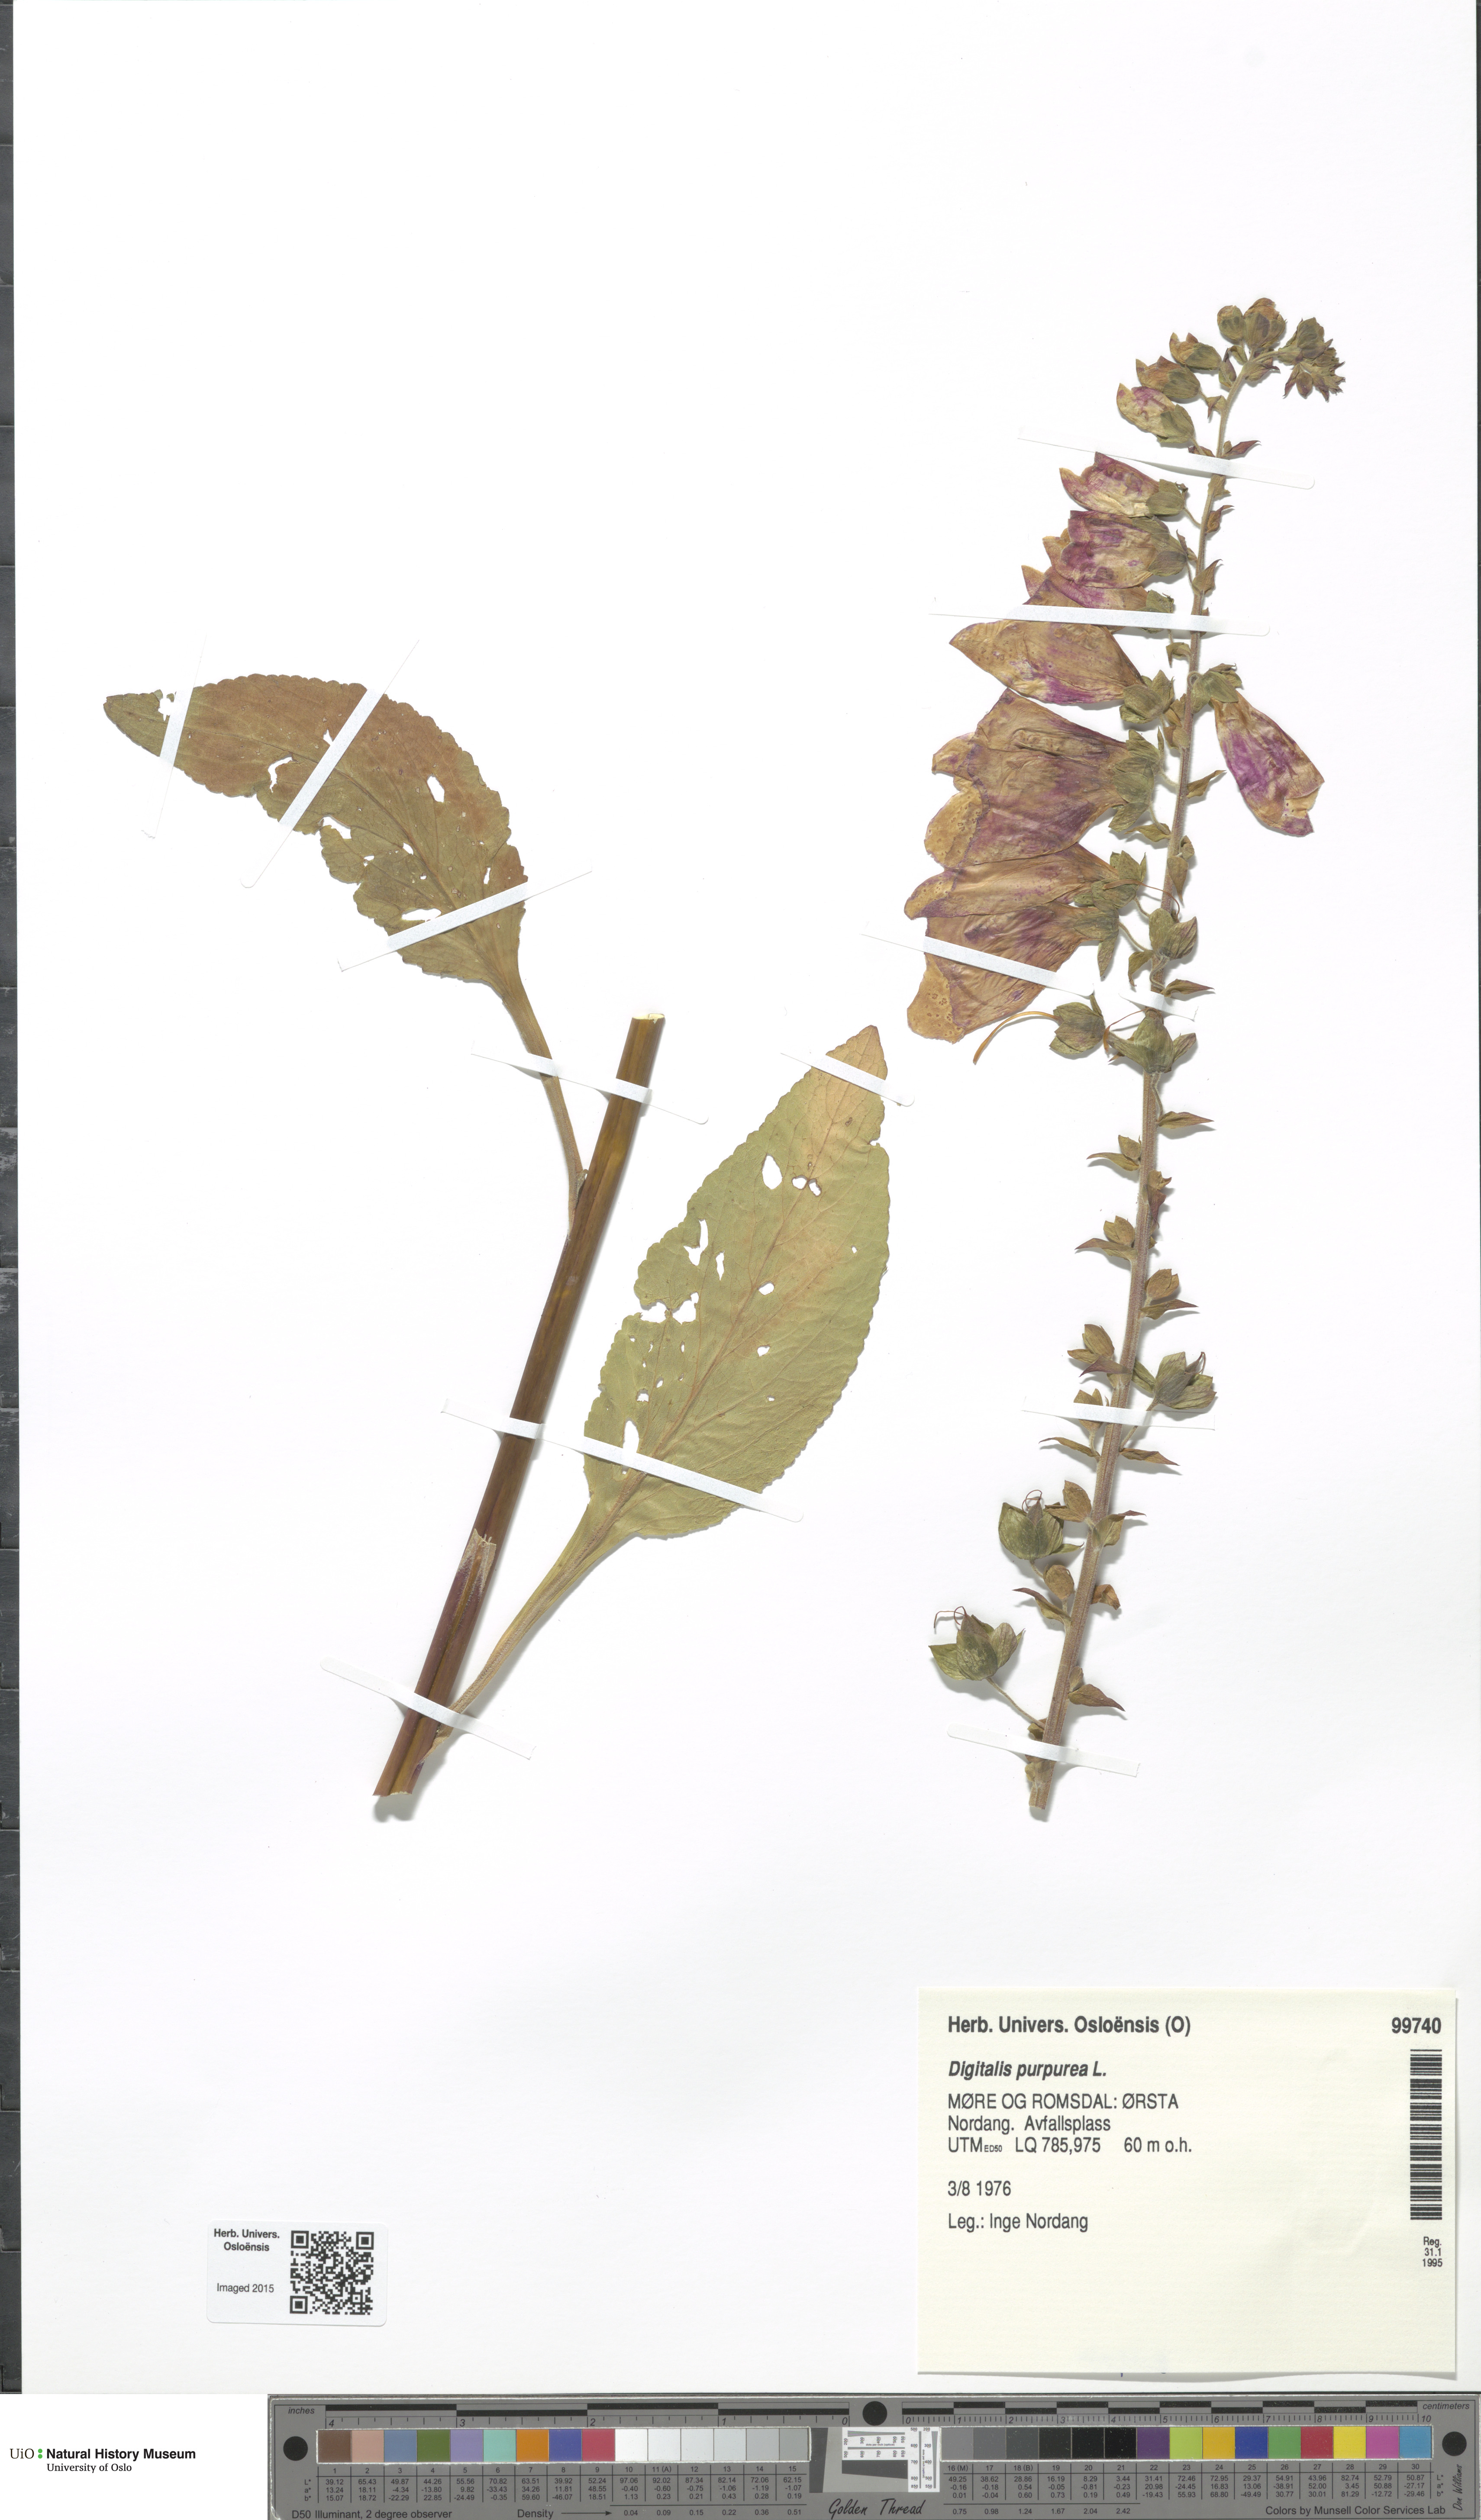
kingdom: Plantae
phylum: Tracheophyta
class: Magnoliopsida
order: Lamiales
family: Plantaginaceae
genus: Digitalis
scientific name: Digitalis purpurea
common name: Foxglove
